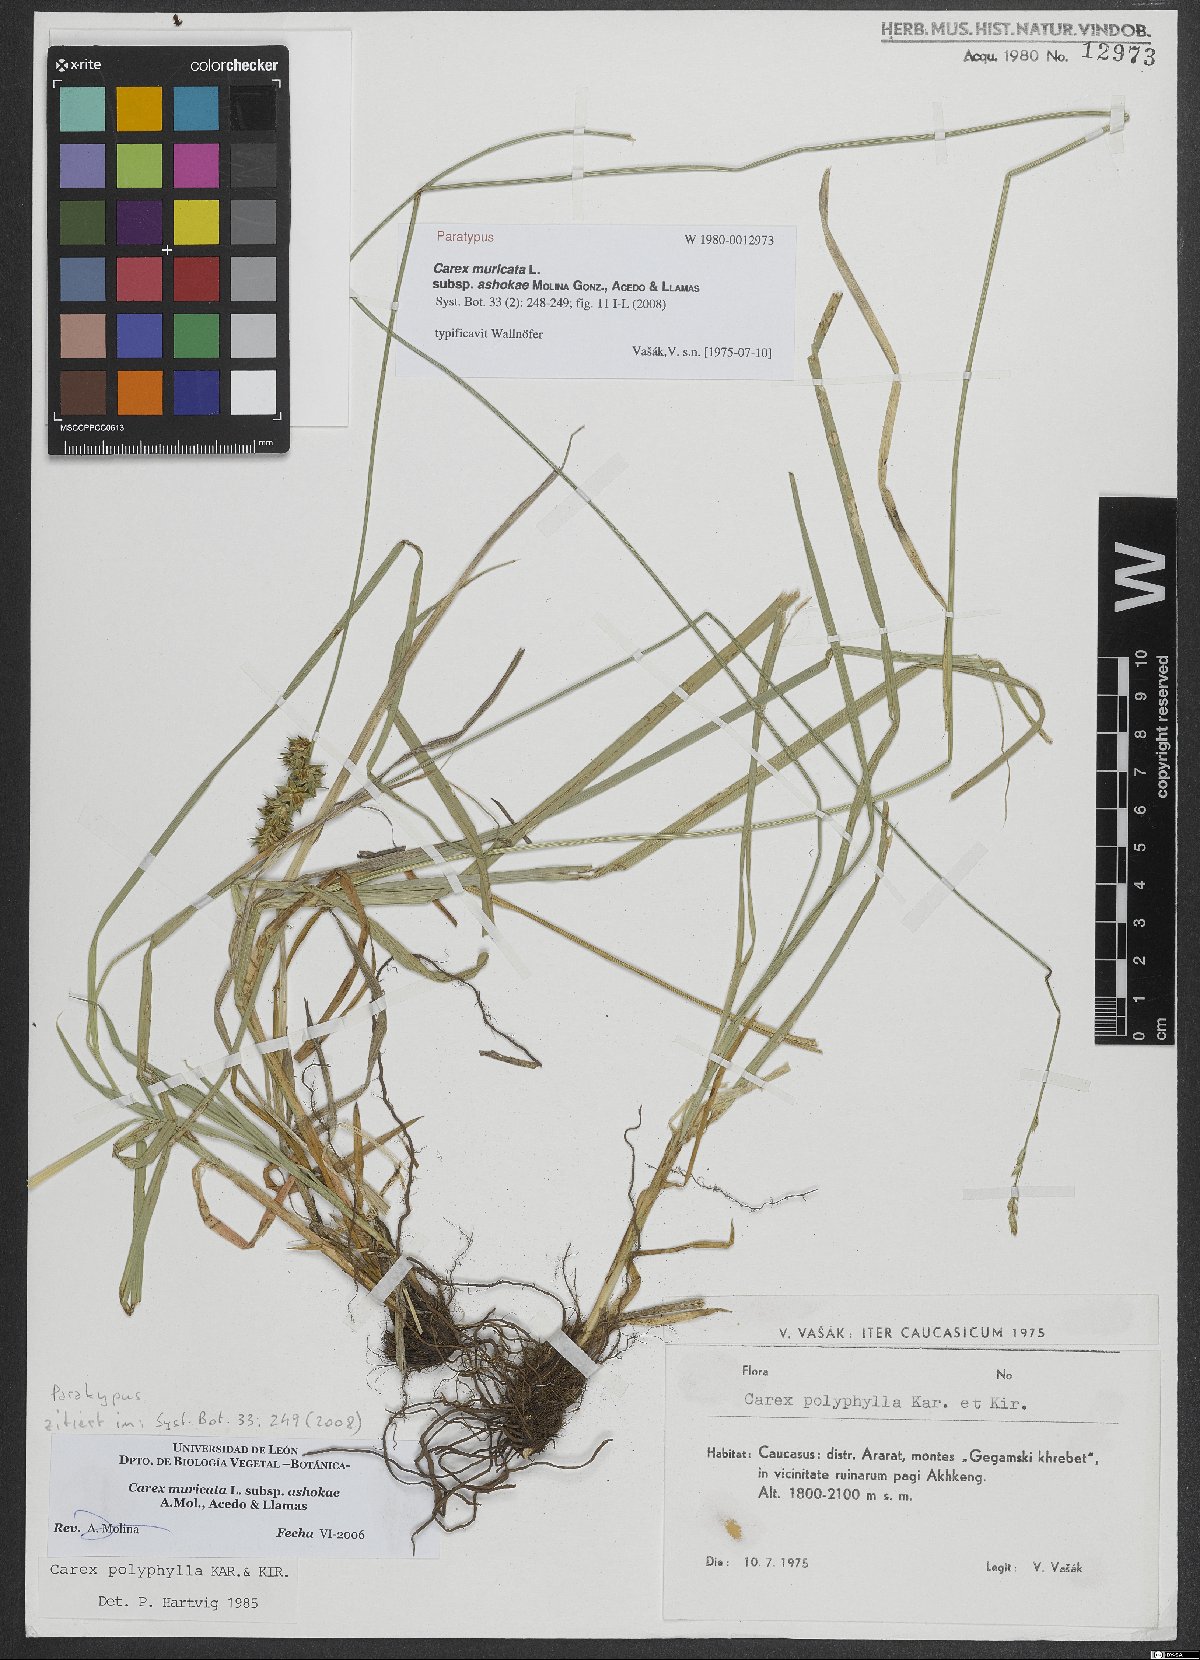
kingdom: Plantae
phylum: Tracheophyta
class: Liliopsida
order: Poales
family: Cyperaceae
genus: Carex
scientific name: Carex muricata
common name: Rough sedge
